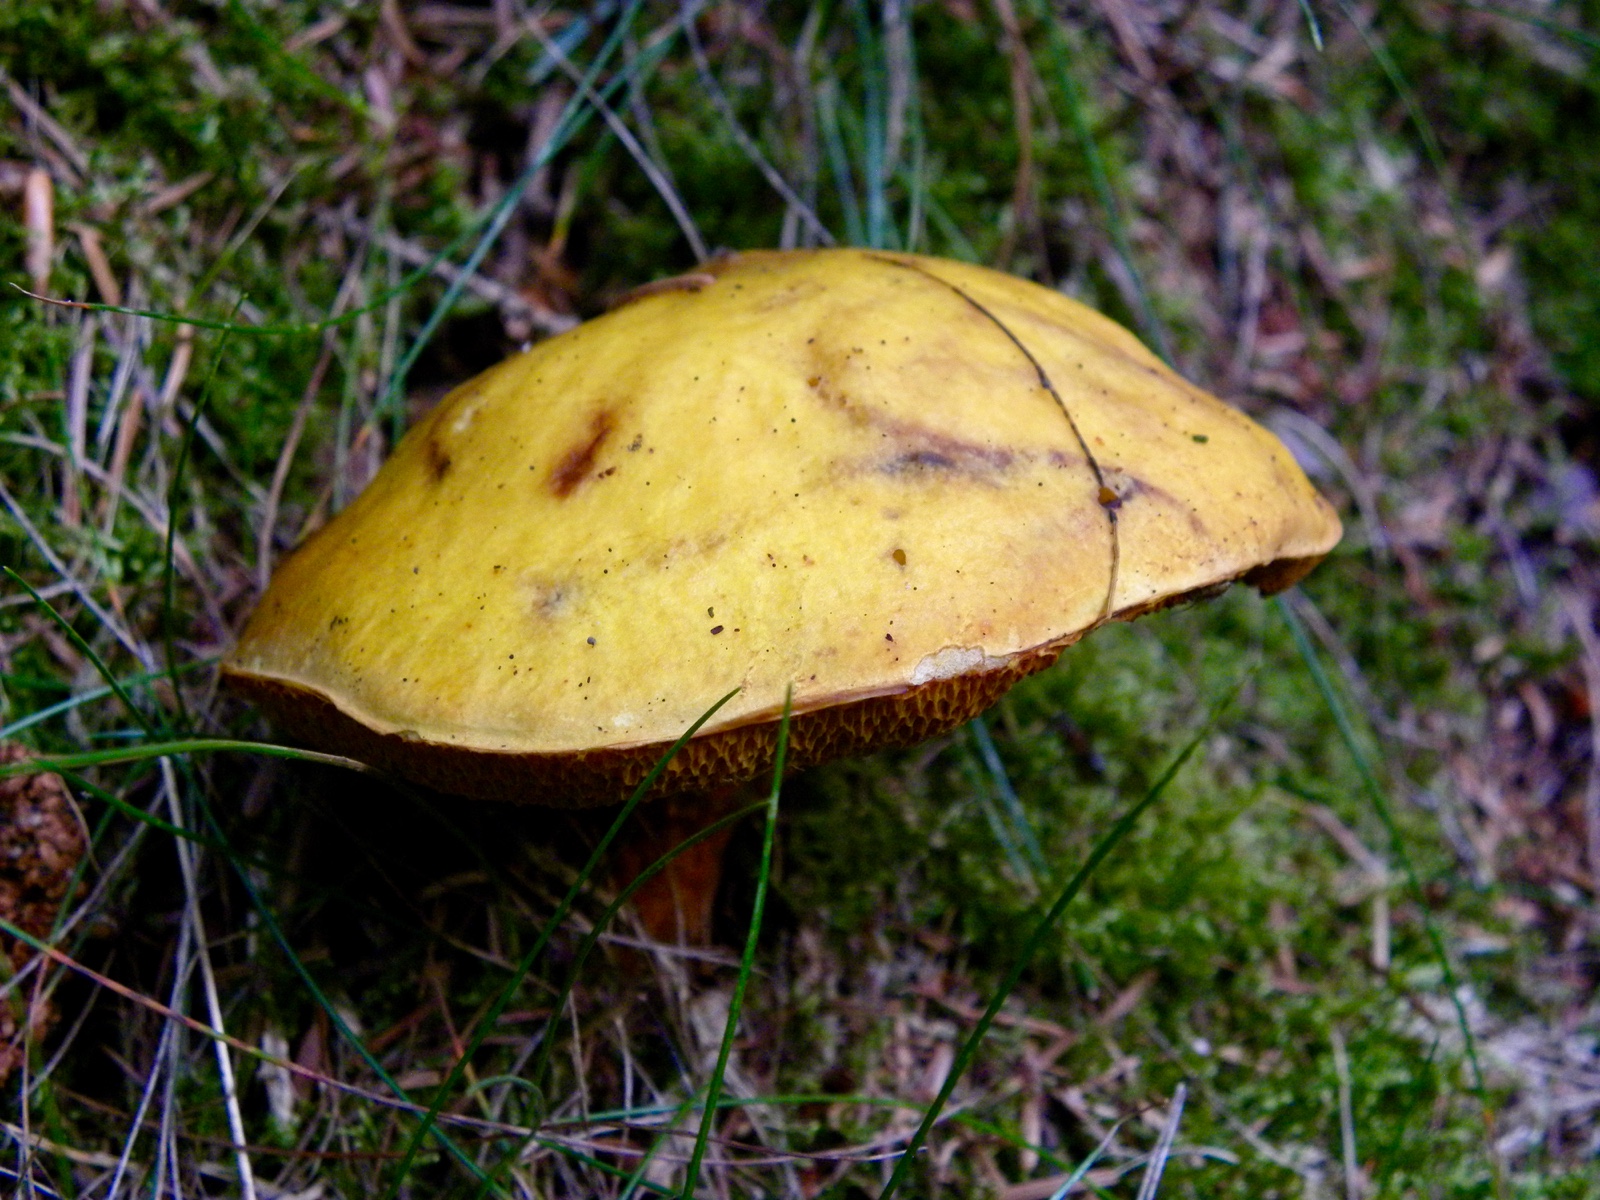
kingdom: Fungi
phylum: Basidiomycota
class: Agaricomycetes
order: Boletales
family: Suillaceae
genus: Suillus
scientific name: Suillus grevillei
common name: lærke-slimrørhat
